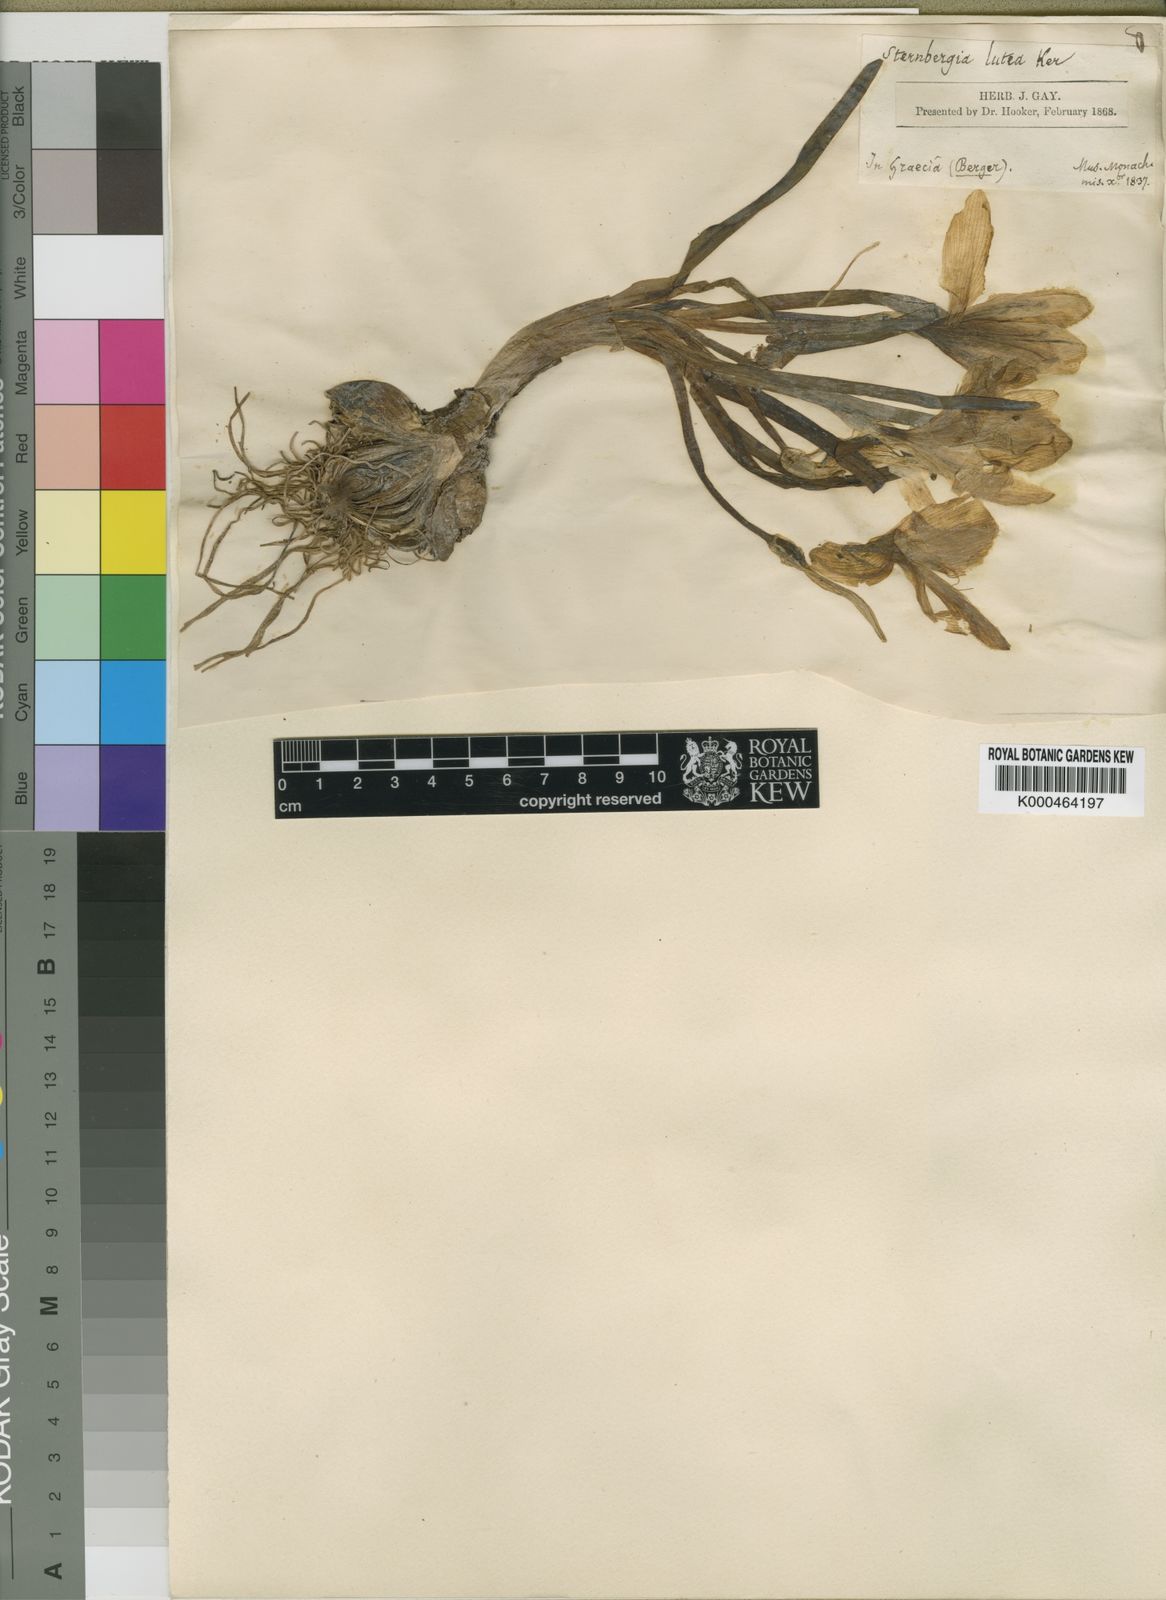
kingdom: Plantae
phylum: Tracheophyta
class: Liliopsida
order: Asparagales
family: Amaryllidaceae
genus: Sternbergia
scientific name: Sternbergia
